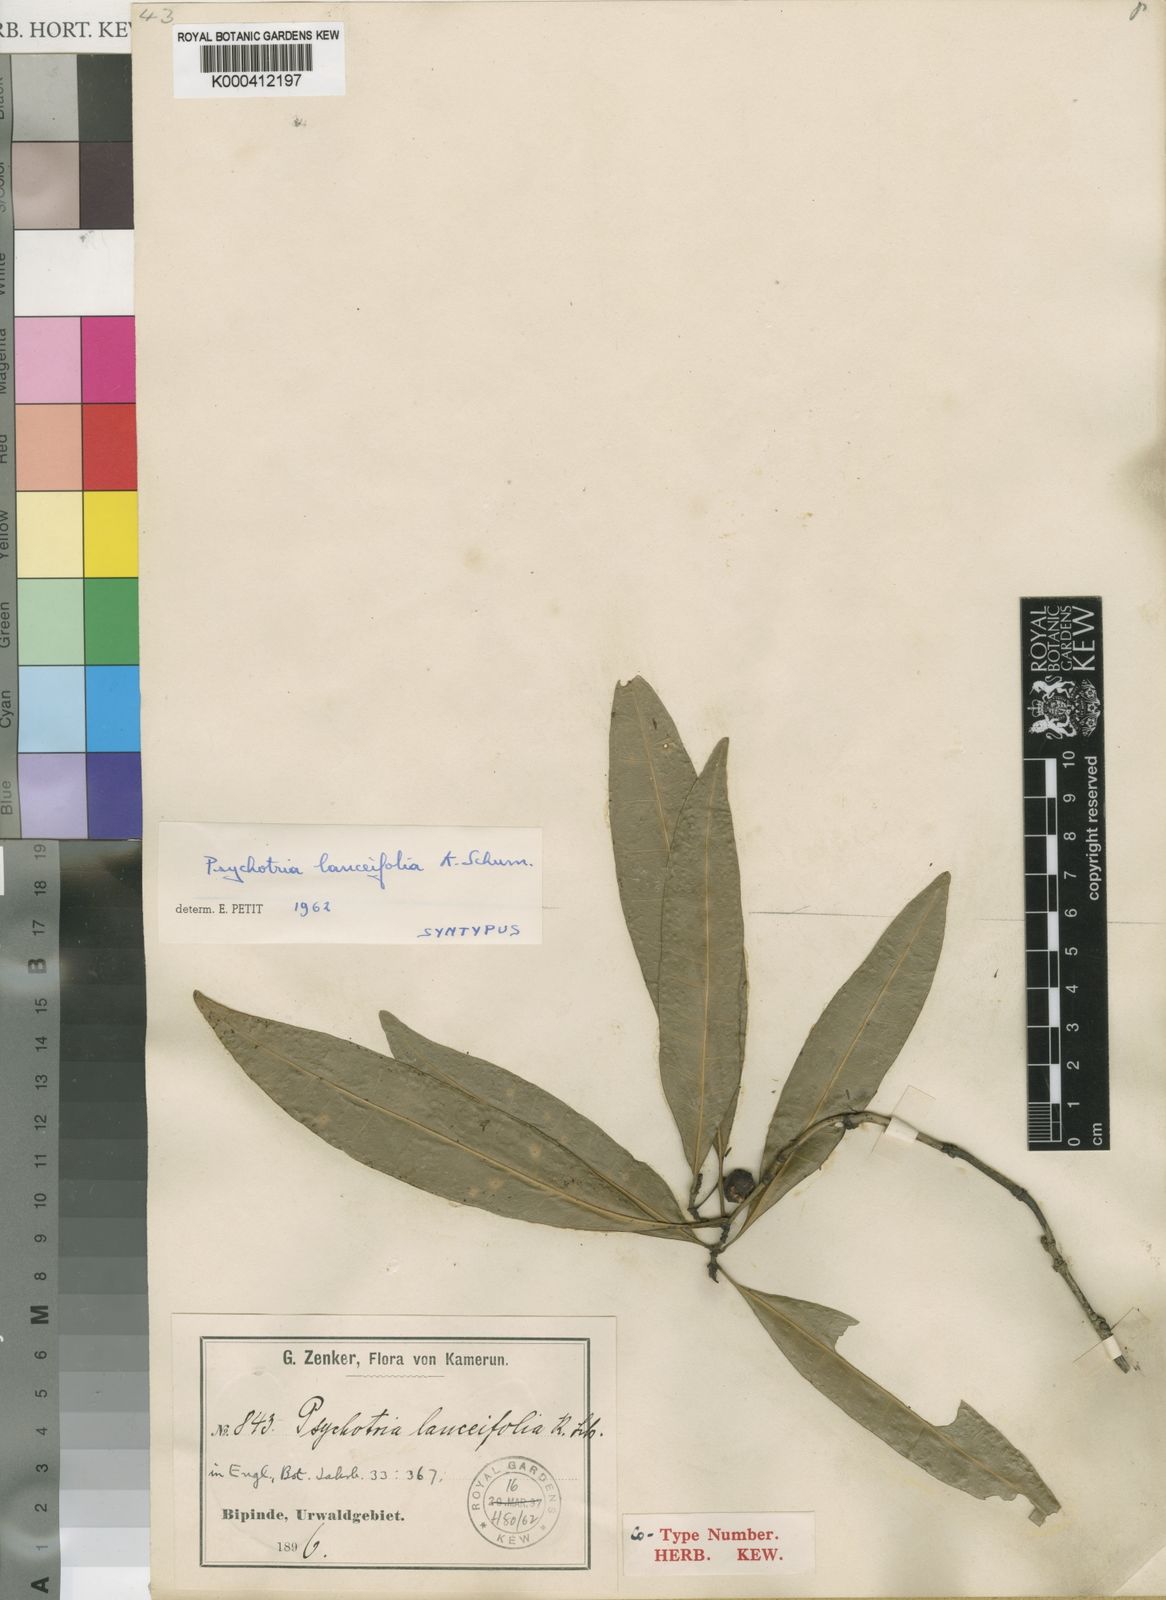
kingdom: Plantae
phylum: Tracheophyta
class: Magnoliopsida
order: Gentianales
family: Rubiaceae
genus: Psychotria
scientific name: Psychotria lanceifolia
